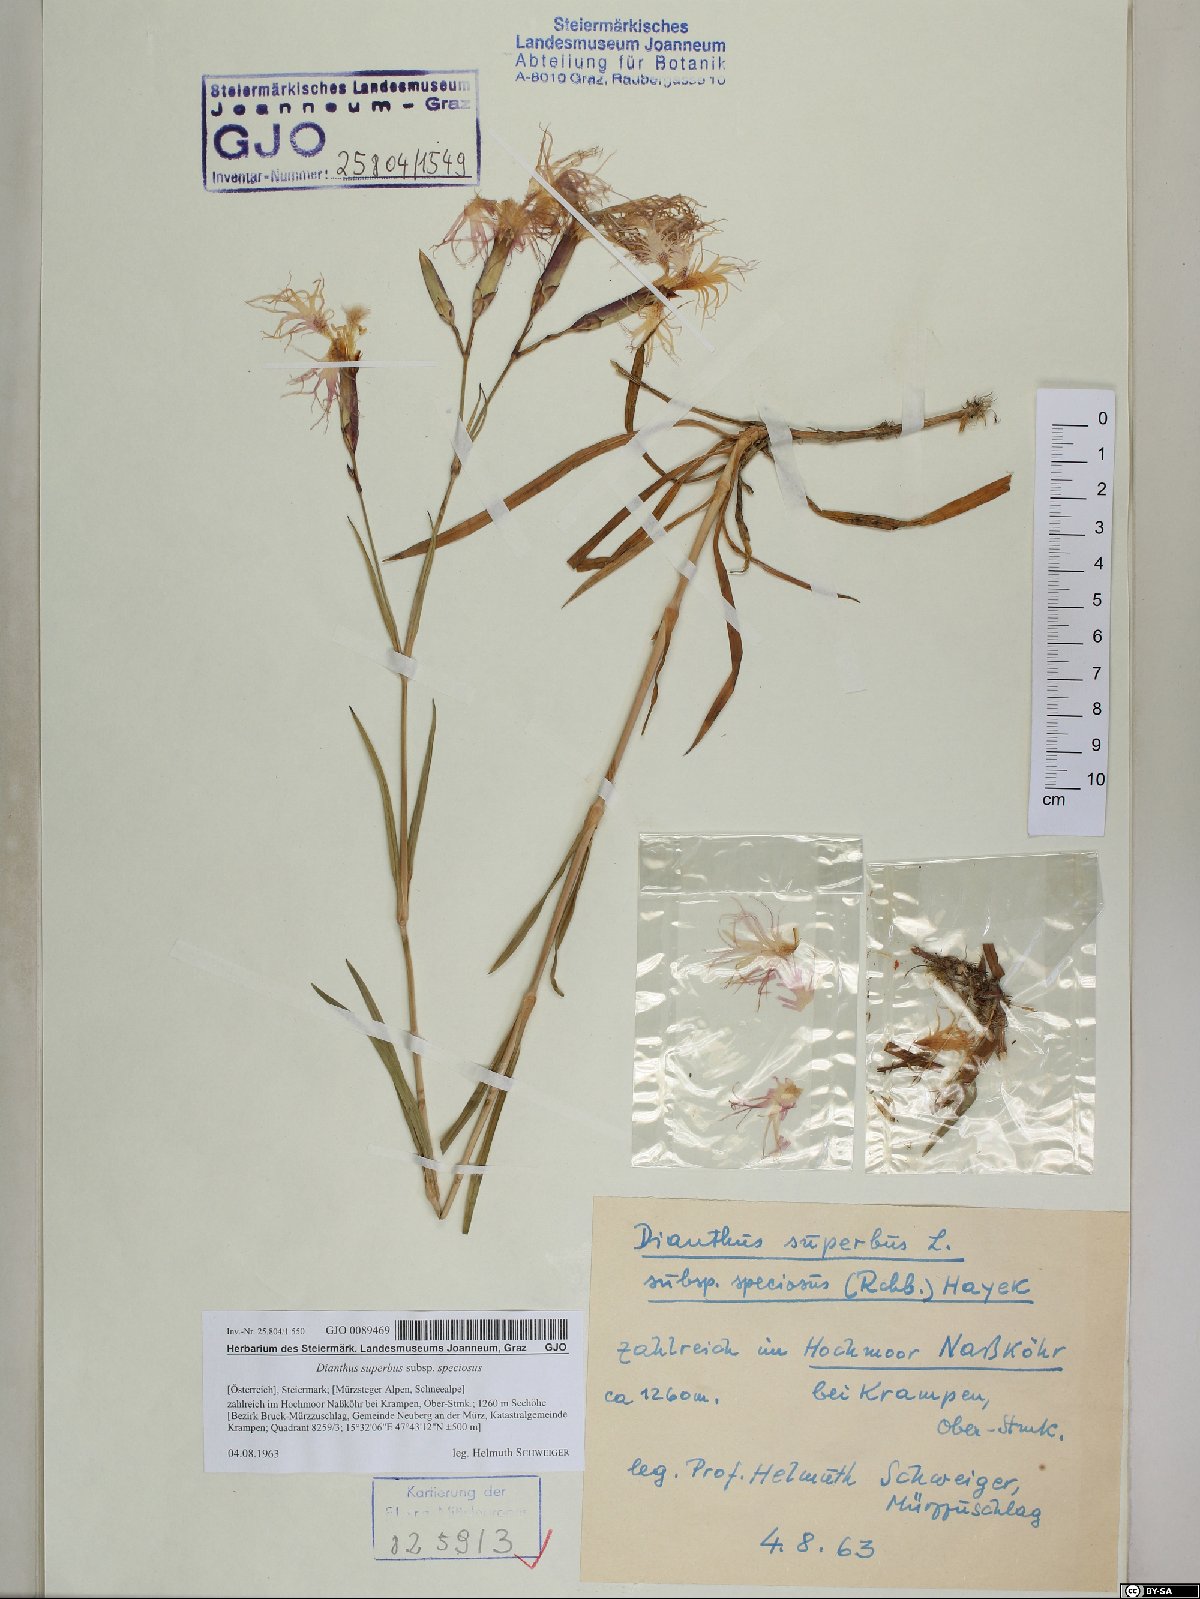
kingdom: Plantae
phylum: Tracheophyta
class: Magnoliopsida
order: Caryophyllales
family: Caryophyllaceae
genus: Dianthus
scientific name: Dianthus superbus
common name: Fringed pink
